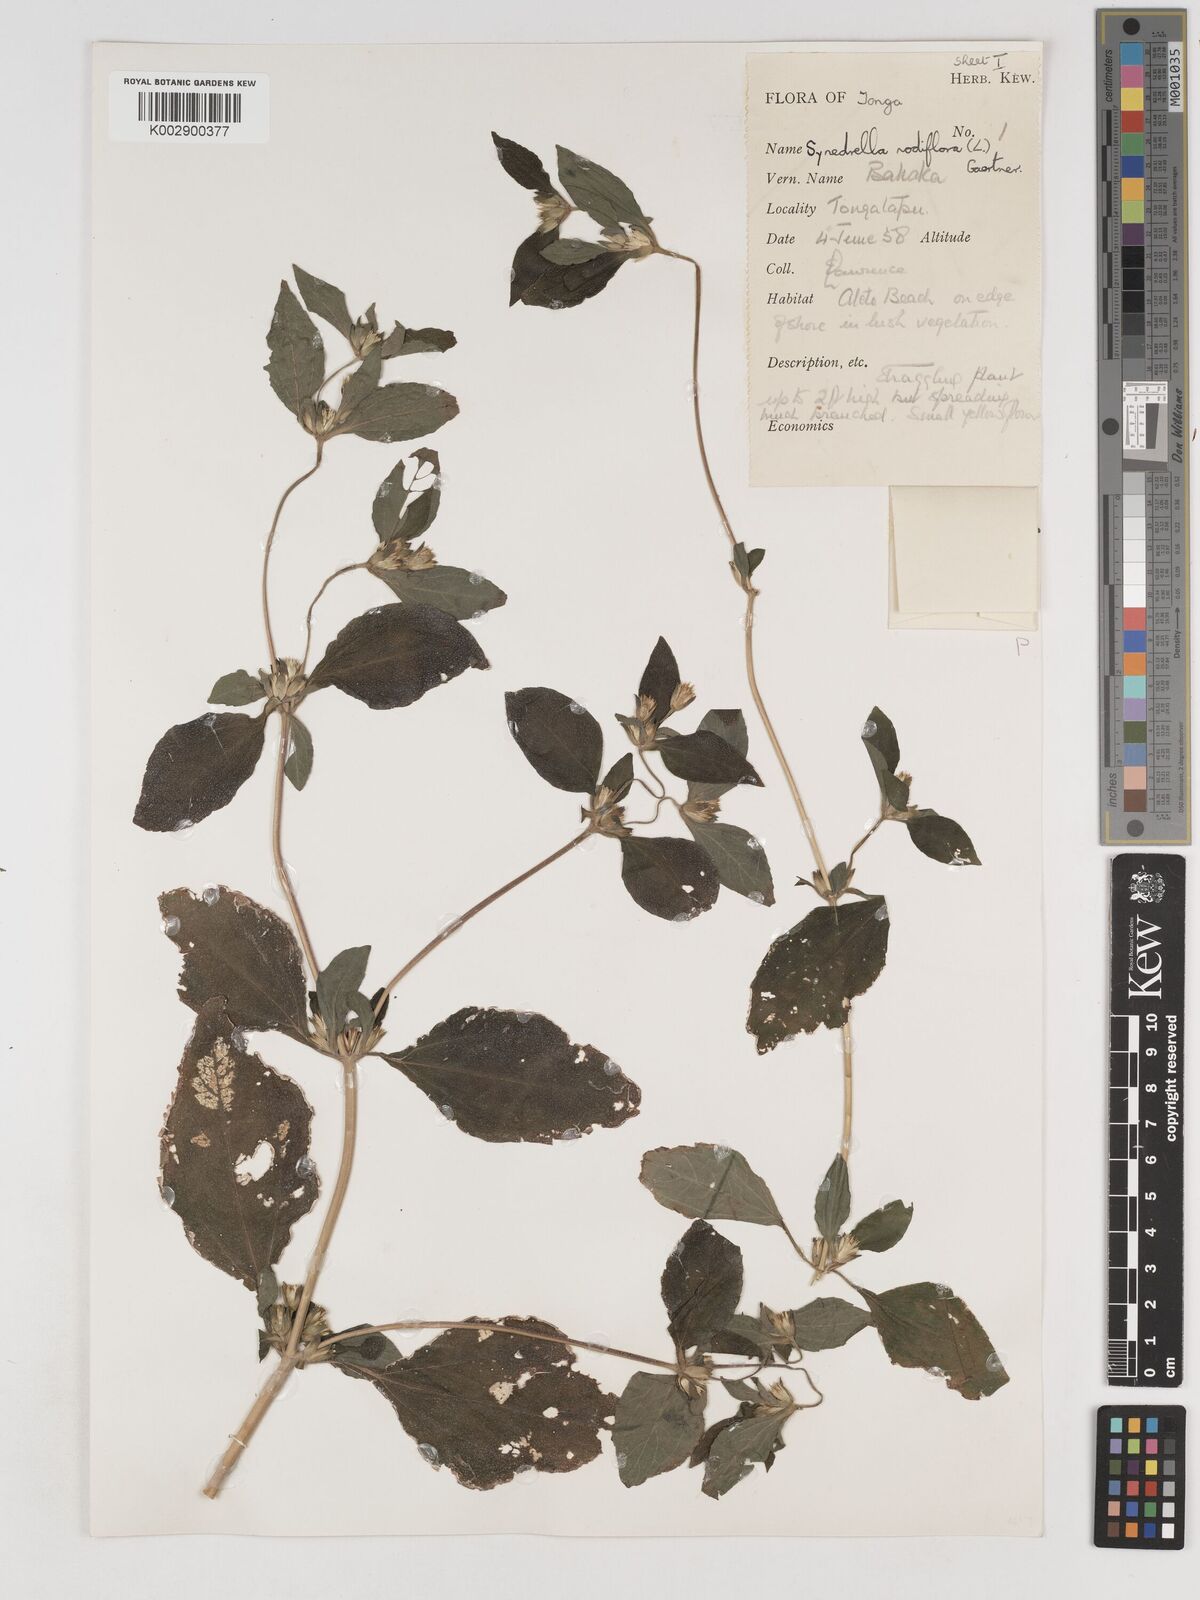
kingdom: Plantae
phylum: Tracheophyta
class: Magnoliopsida
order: Asterales
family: Asteraceae
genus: Synedrella
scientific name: Synedrella nodiflora
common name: Nodeweed
